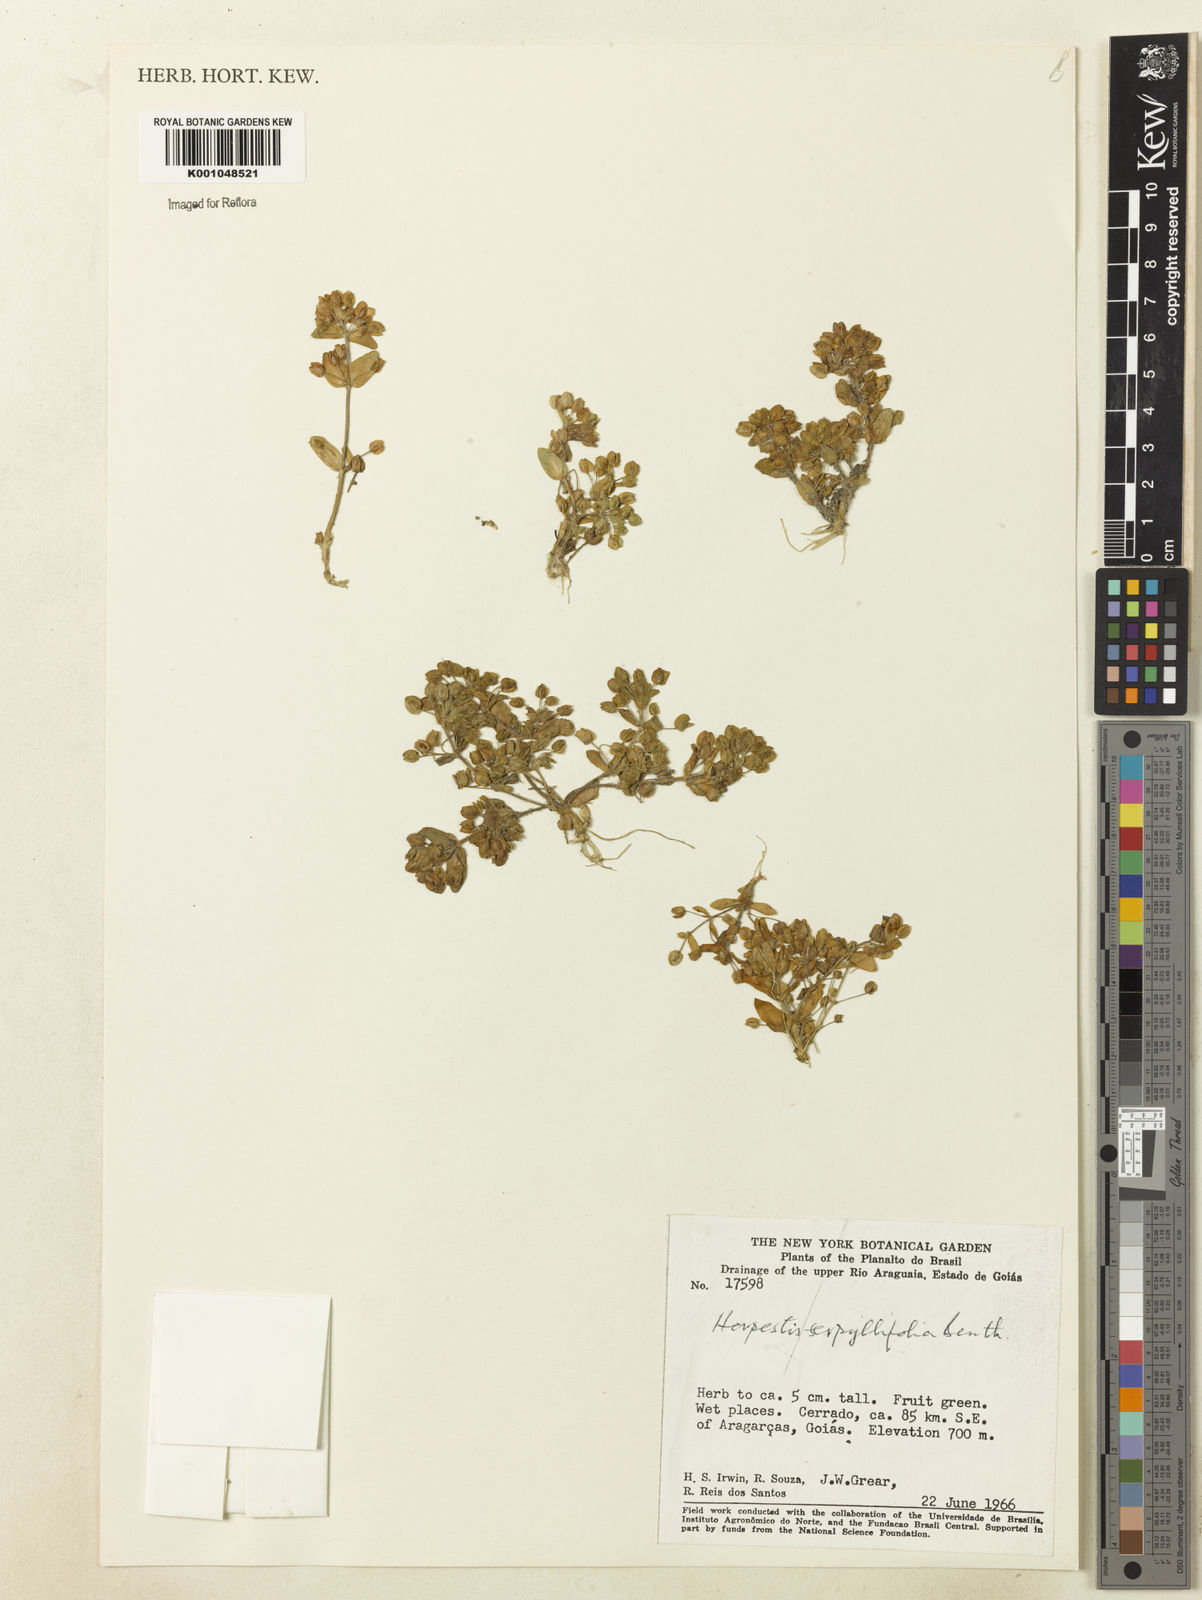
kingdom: Plantae
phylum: Tracheophyta
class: Magnoliopsida
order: Lamiales
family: Plantaginaceae
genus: Bacopa
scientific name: Bacopa serpyllifolia
